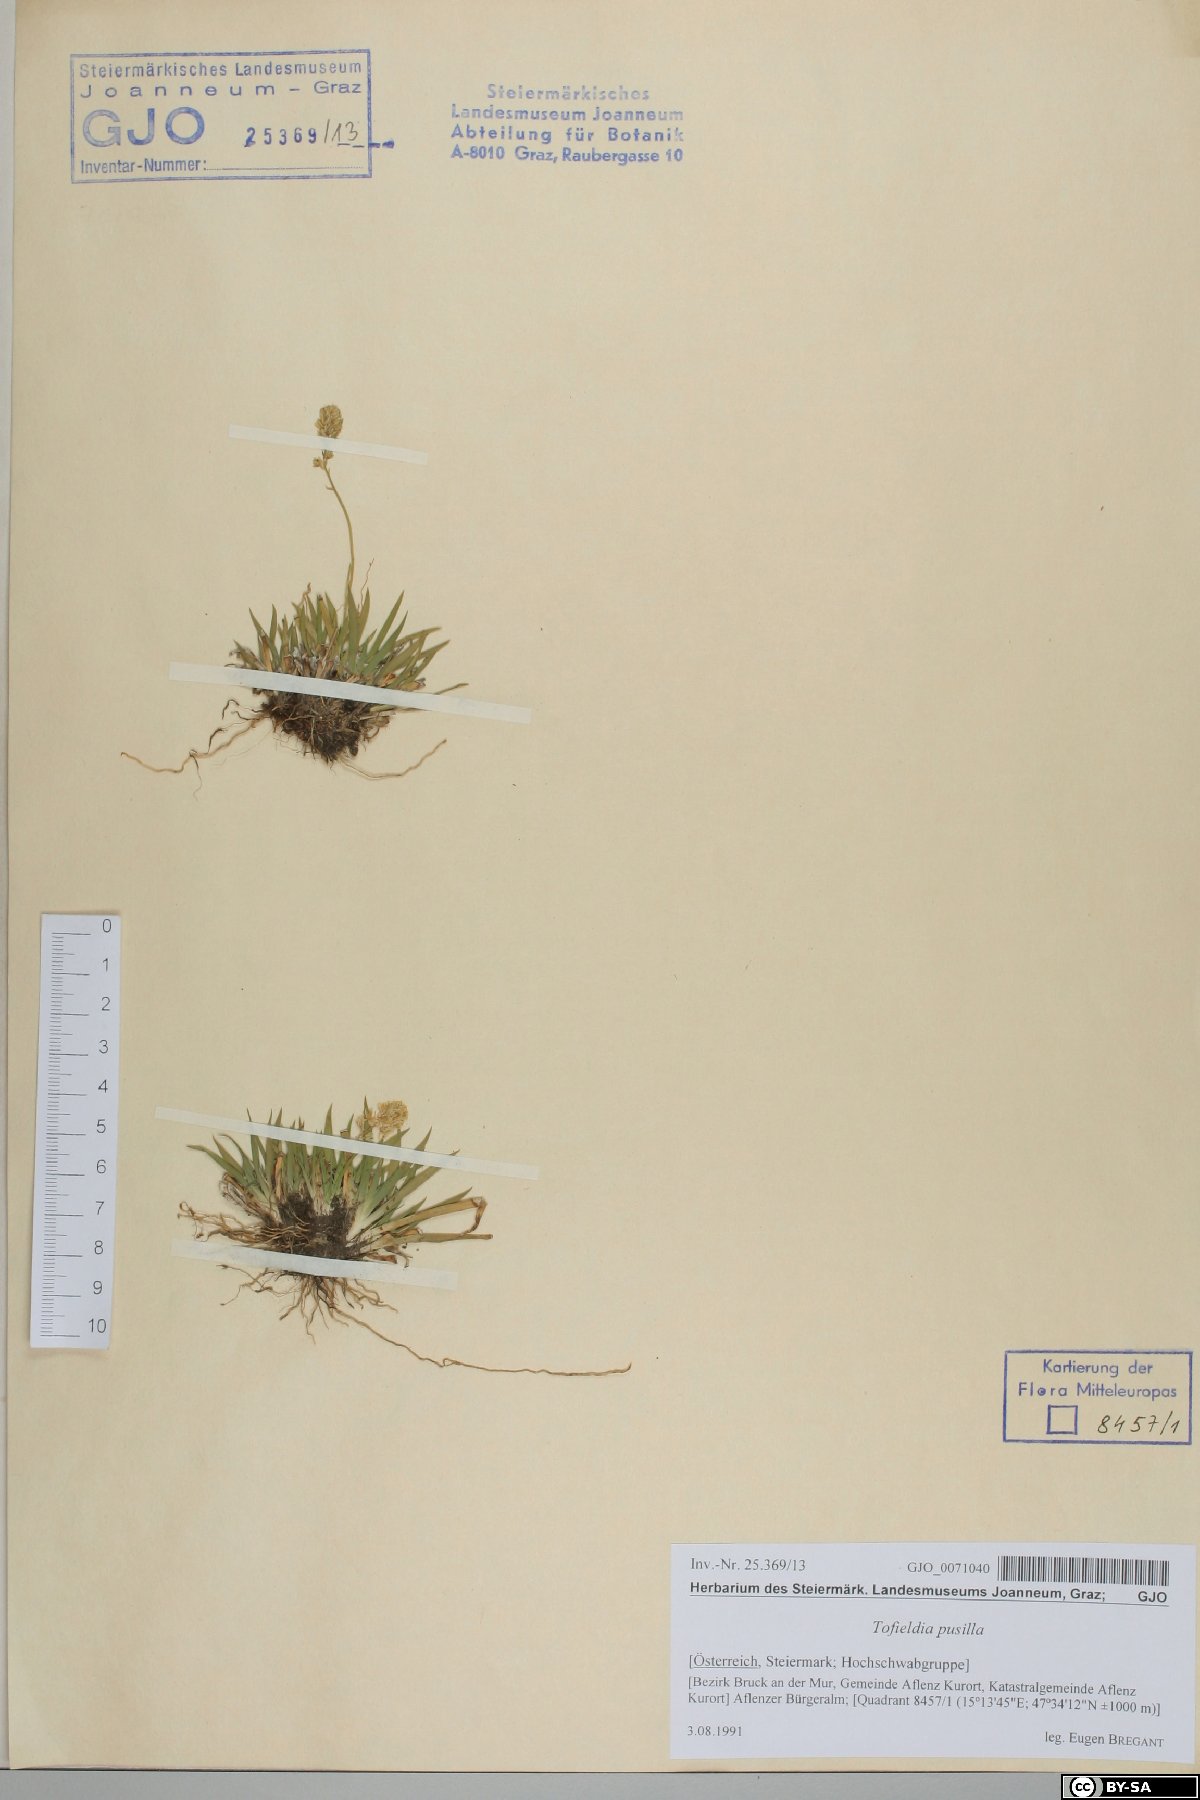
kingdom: Plantae
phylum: Tracheophyta
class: Liliopsida
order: Alismatales
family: Tofieldiaceae
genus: Tofieldia
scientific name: Tofieldia pusilla
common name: Scottish false asphodel
